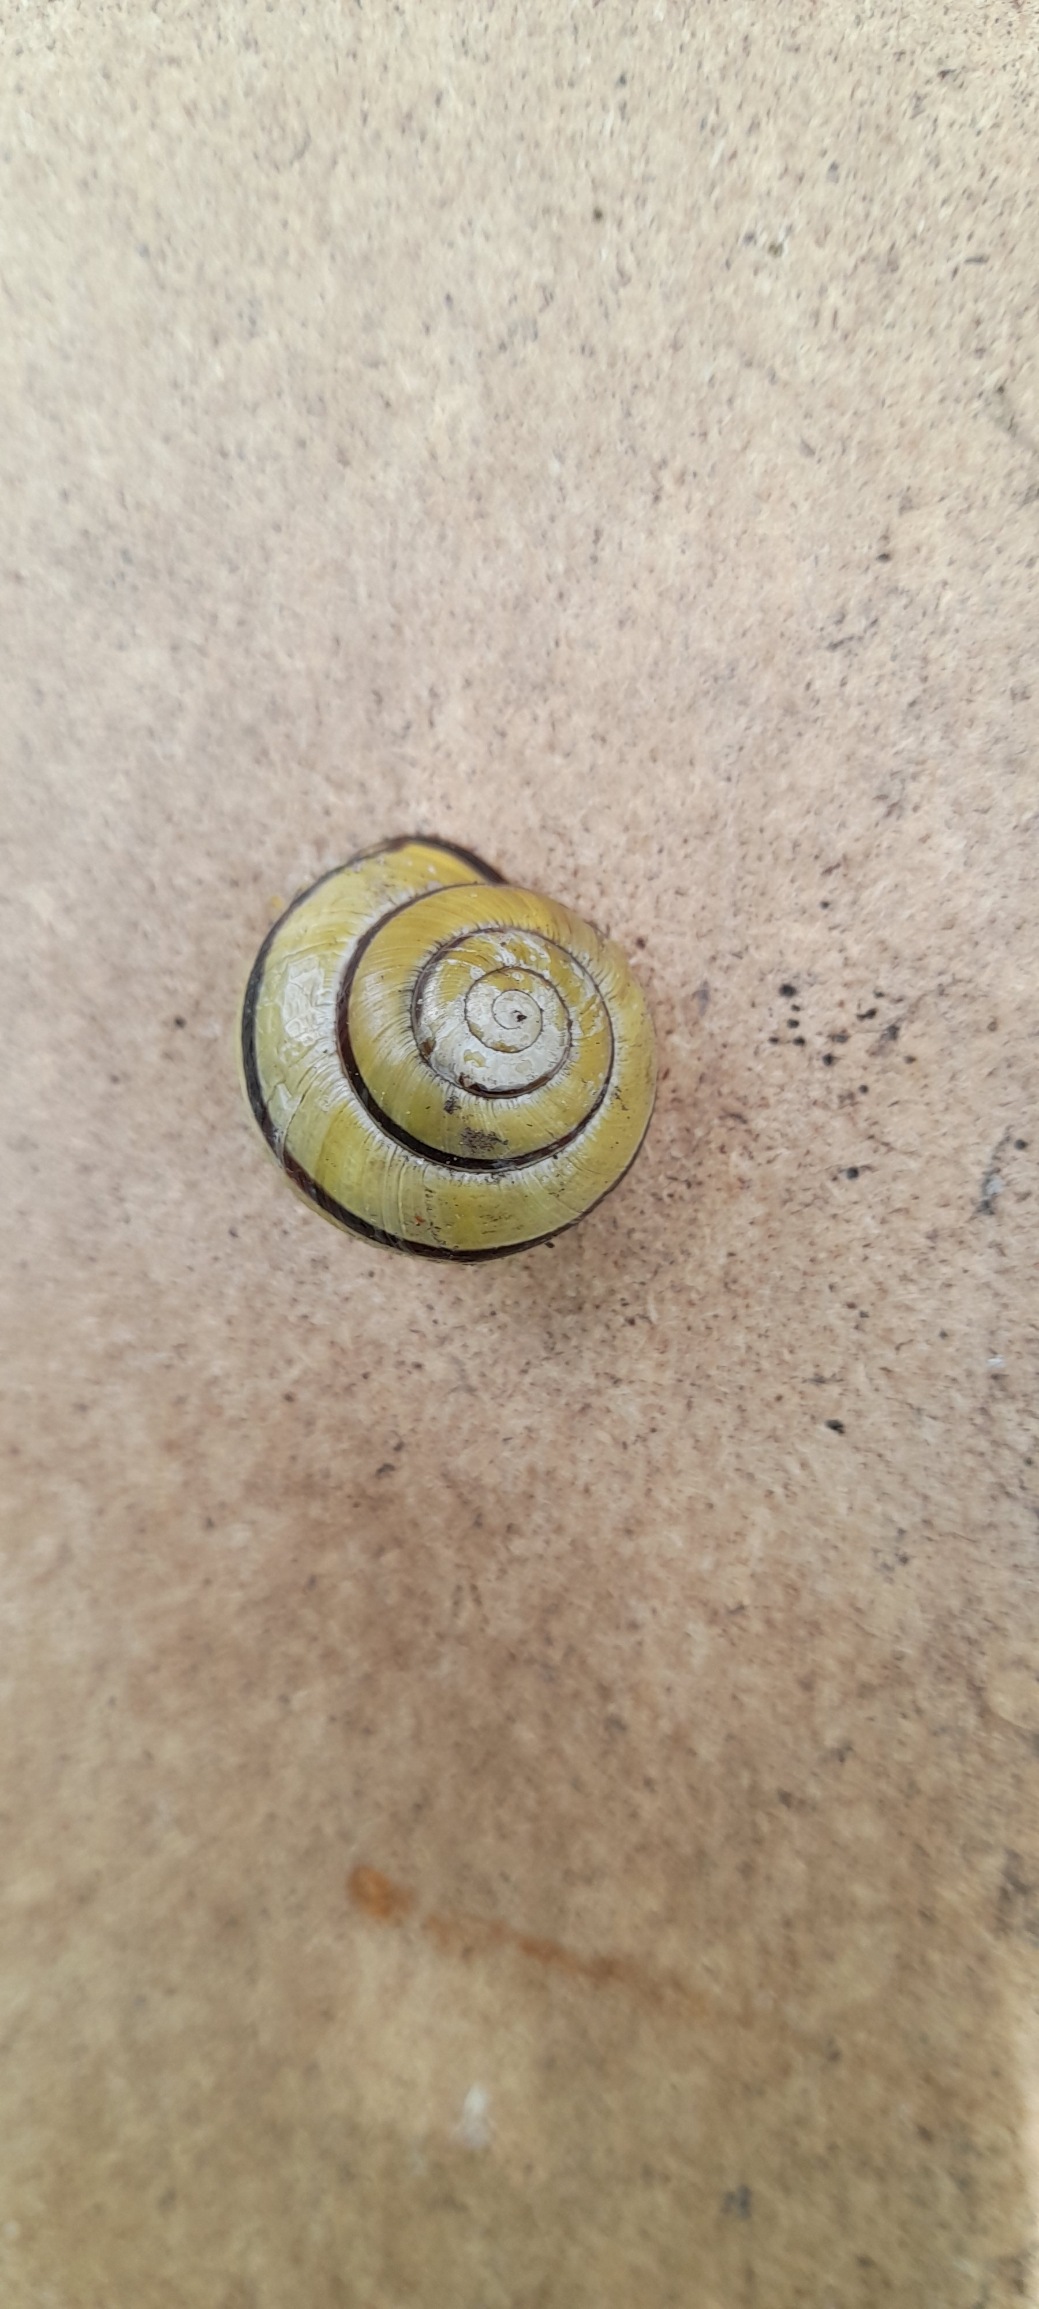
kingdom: Animalia
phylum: Mollusca
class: Gastropoda
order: Stylommatophora
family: Helicidae
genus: Cepaea
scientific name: Cepaea nemoralis
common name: Lundsnegl
